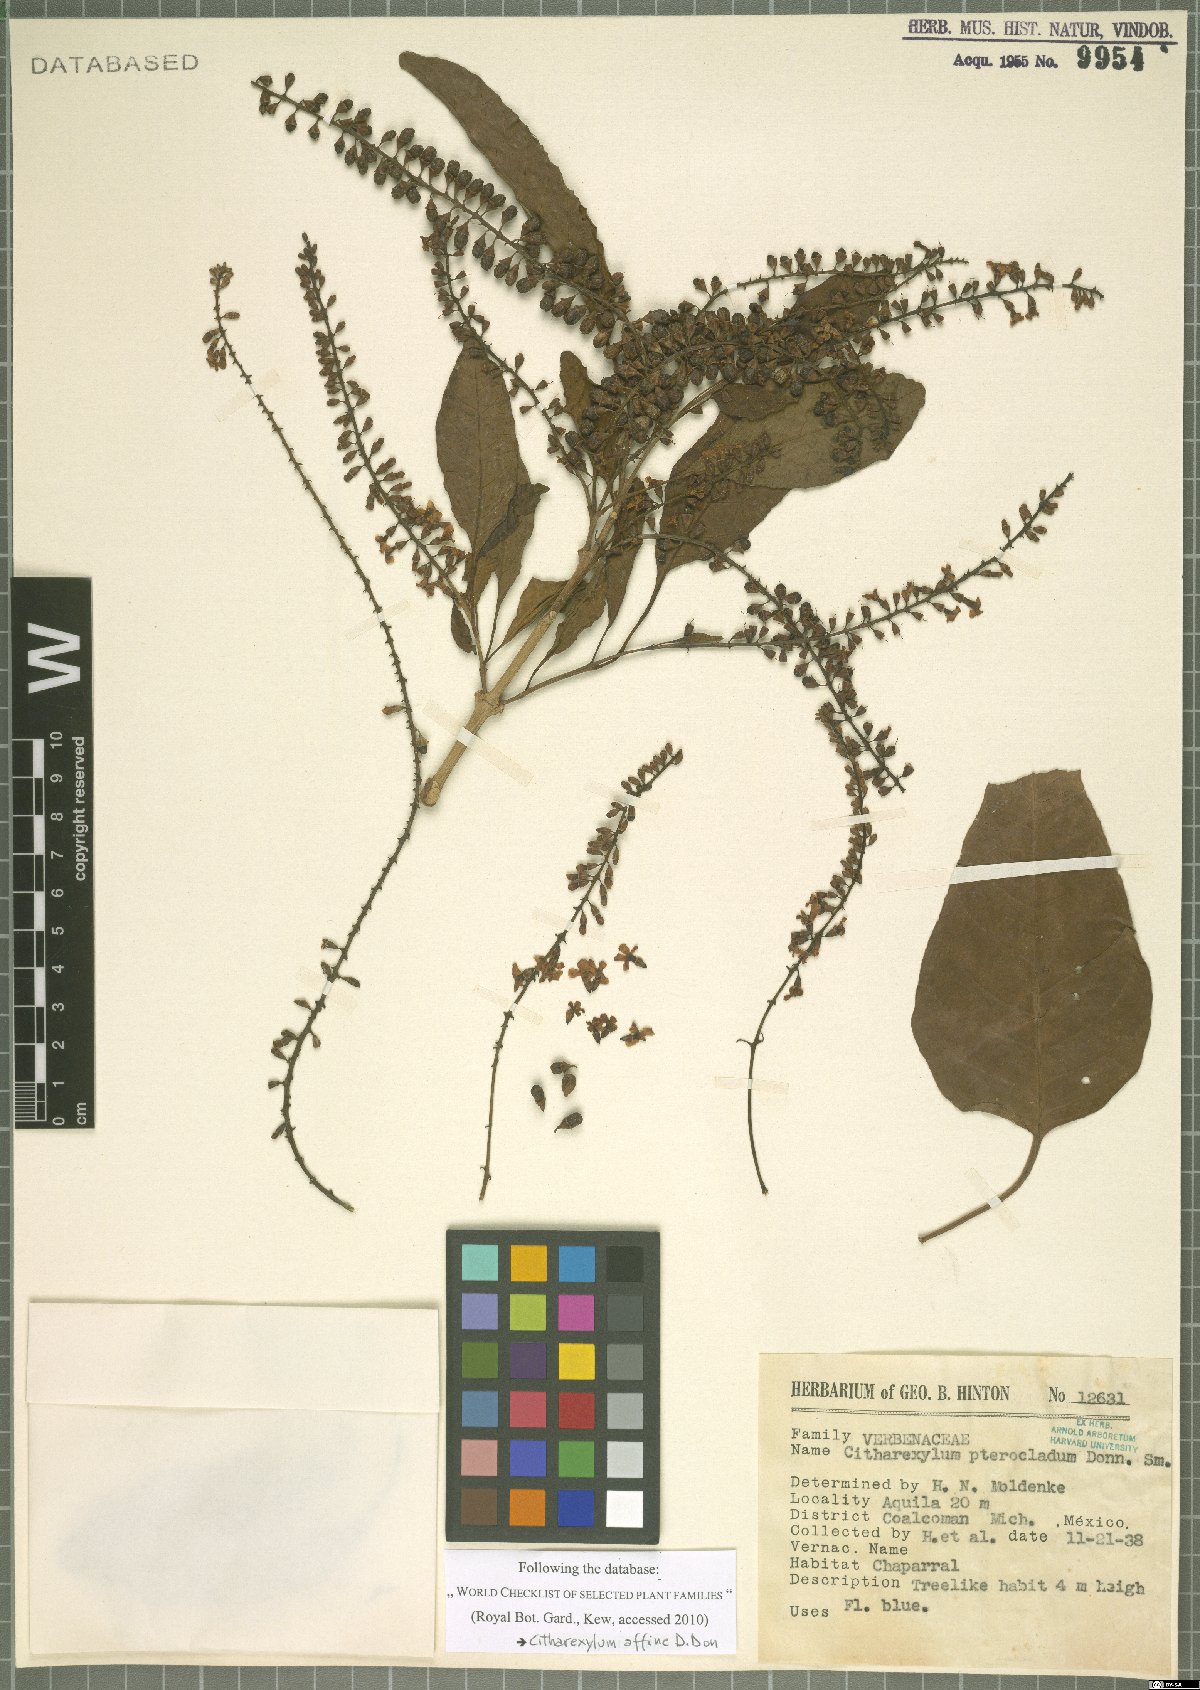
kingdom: Plantae
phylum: Tracheophyta
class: Magnoliopsida
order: Lamiales
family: Verbenaceae
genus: Citharexylum
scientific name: Citharexylum affine
